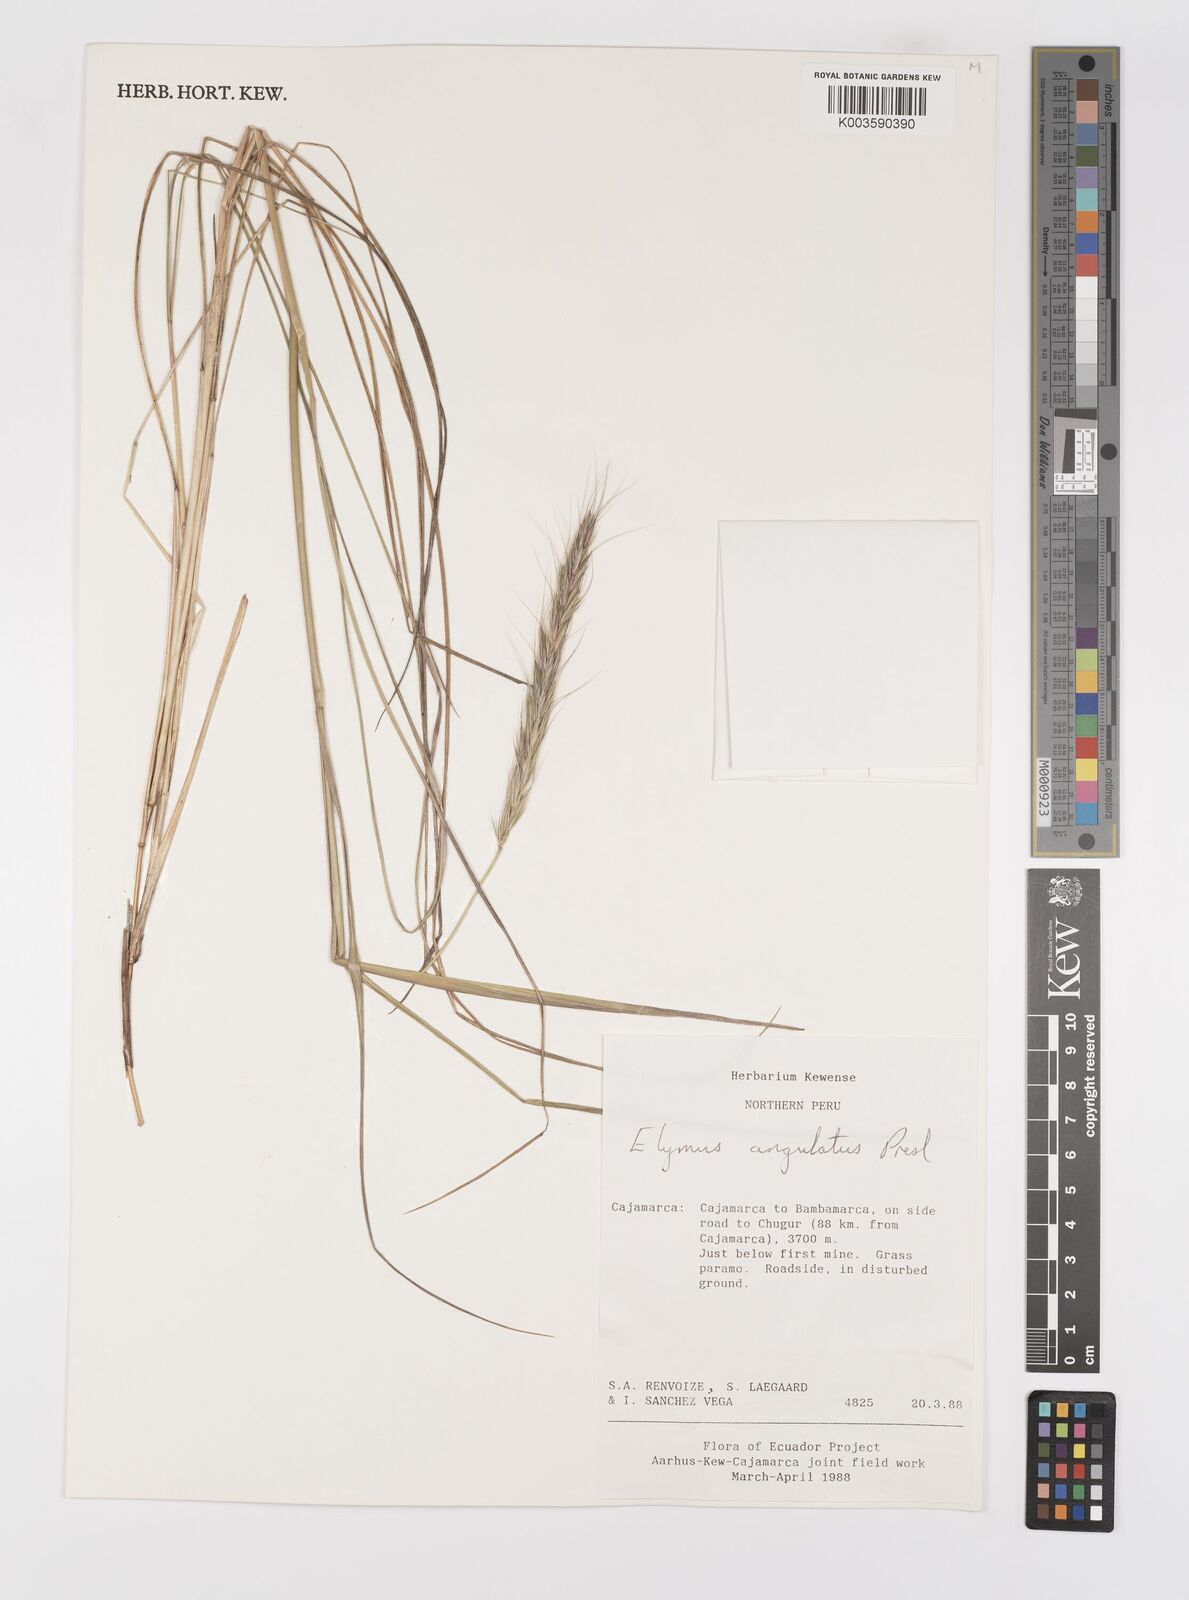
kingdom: Plantae
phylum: Tracheophyta
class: Liliopsida
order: Poales
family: Poaceae
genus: Elymus
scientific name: Elymus angulatus
